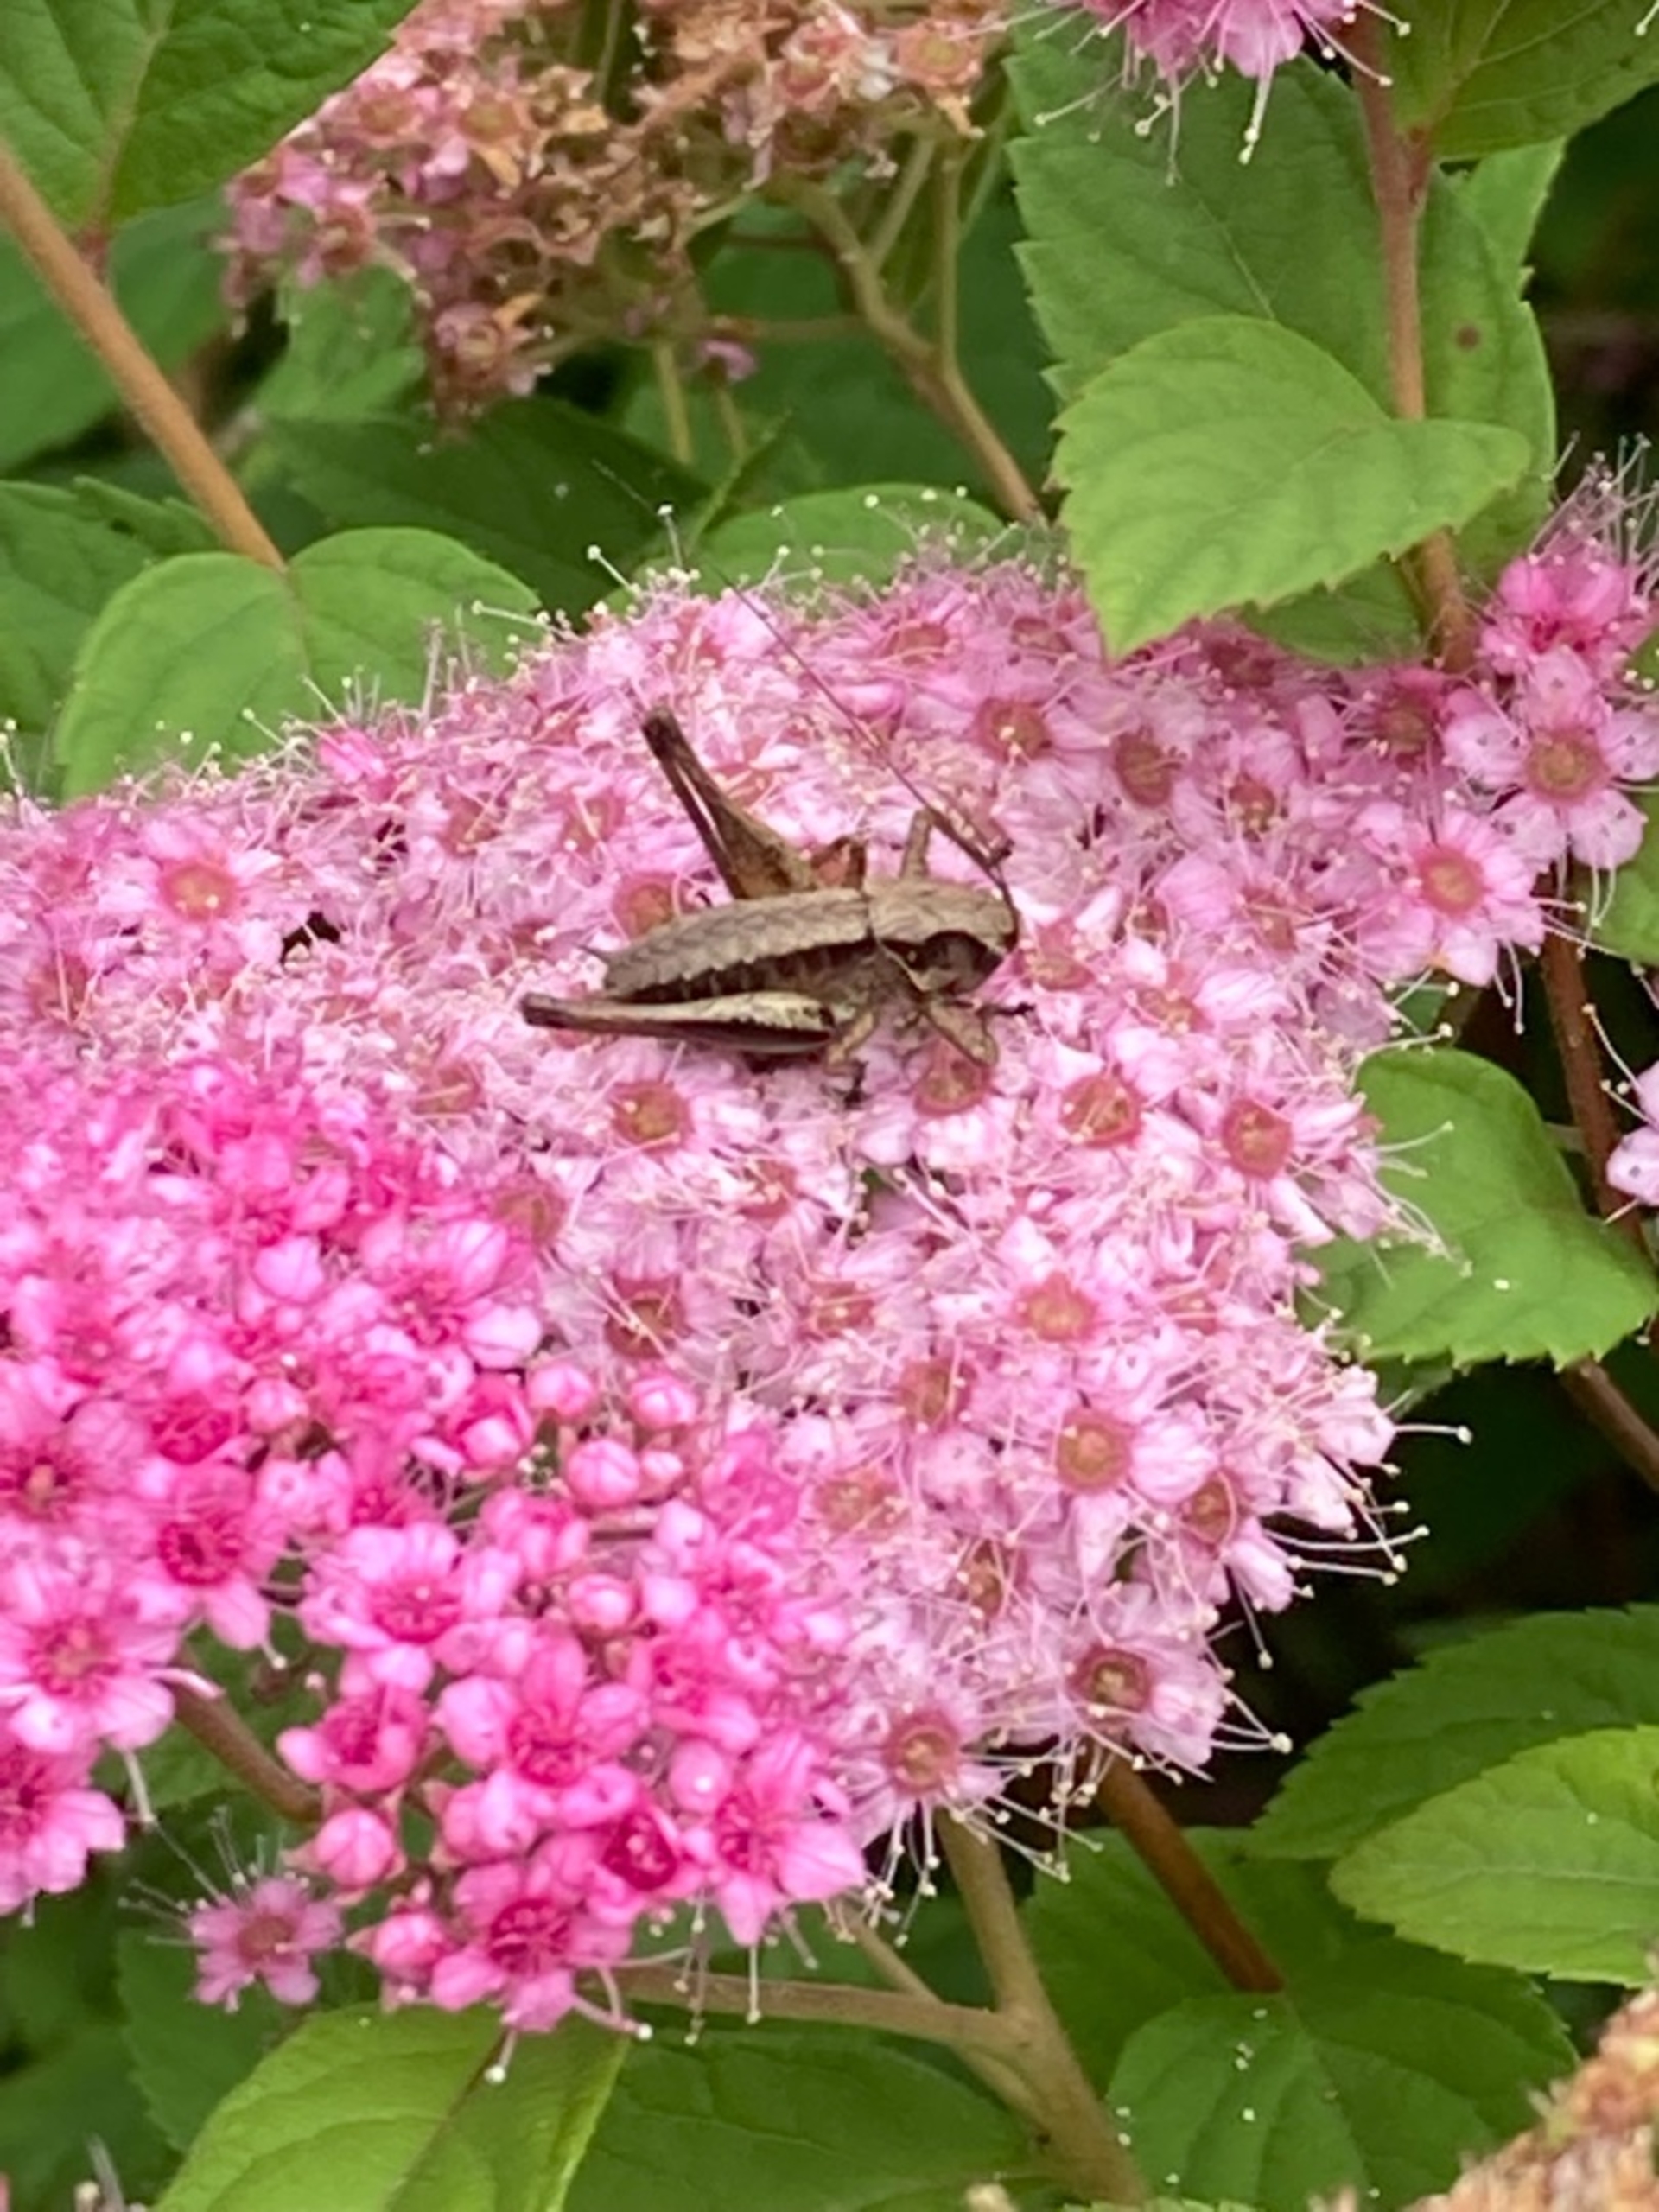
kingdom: Animalia
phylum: Arthropoda
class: Insecta
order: Orthoptera
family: Tettigoniidae
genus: Pholidoptera
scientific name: Pholidoptera griseoaptera
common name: Buskgræshoppe
